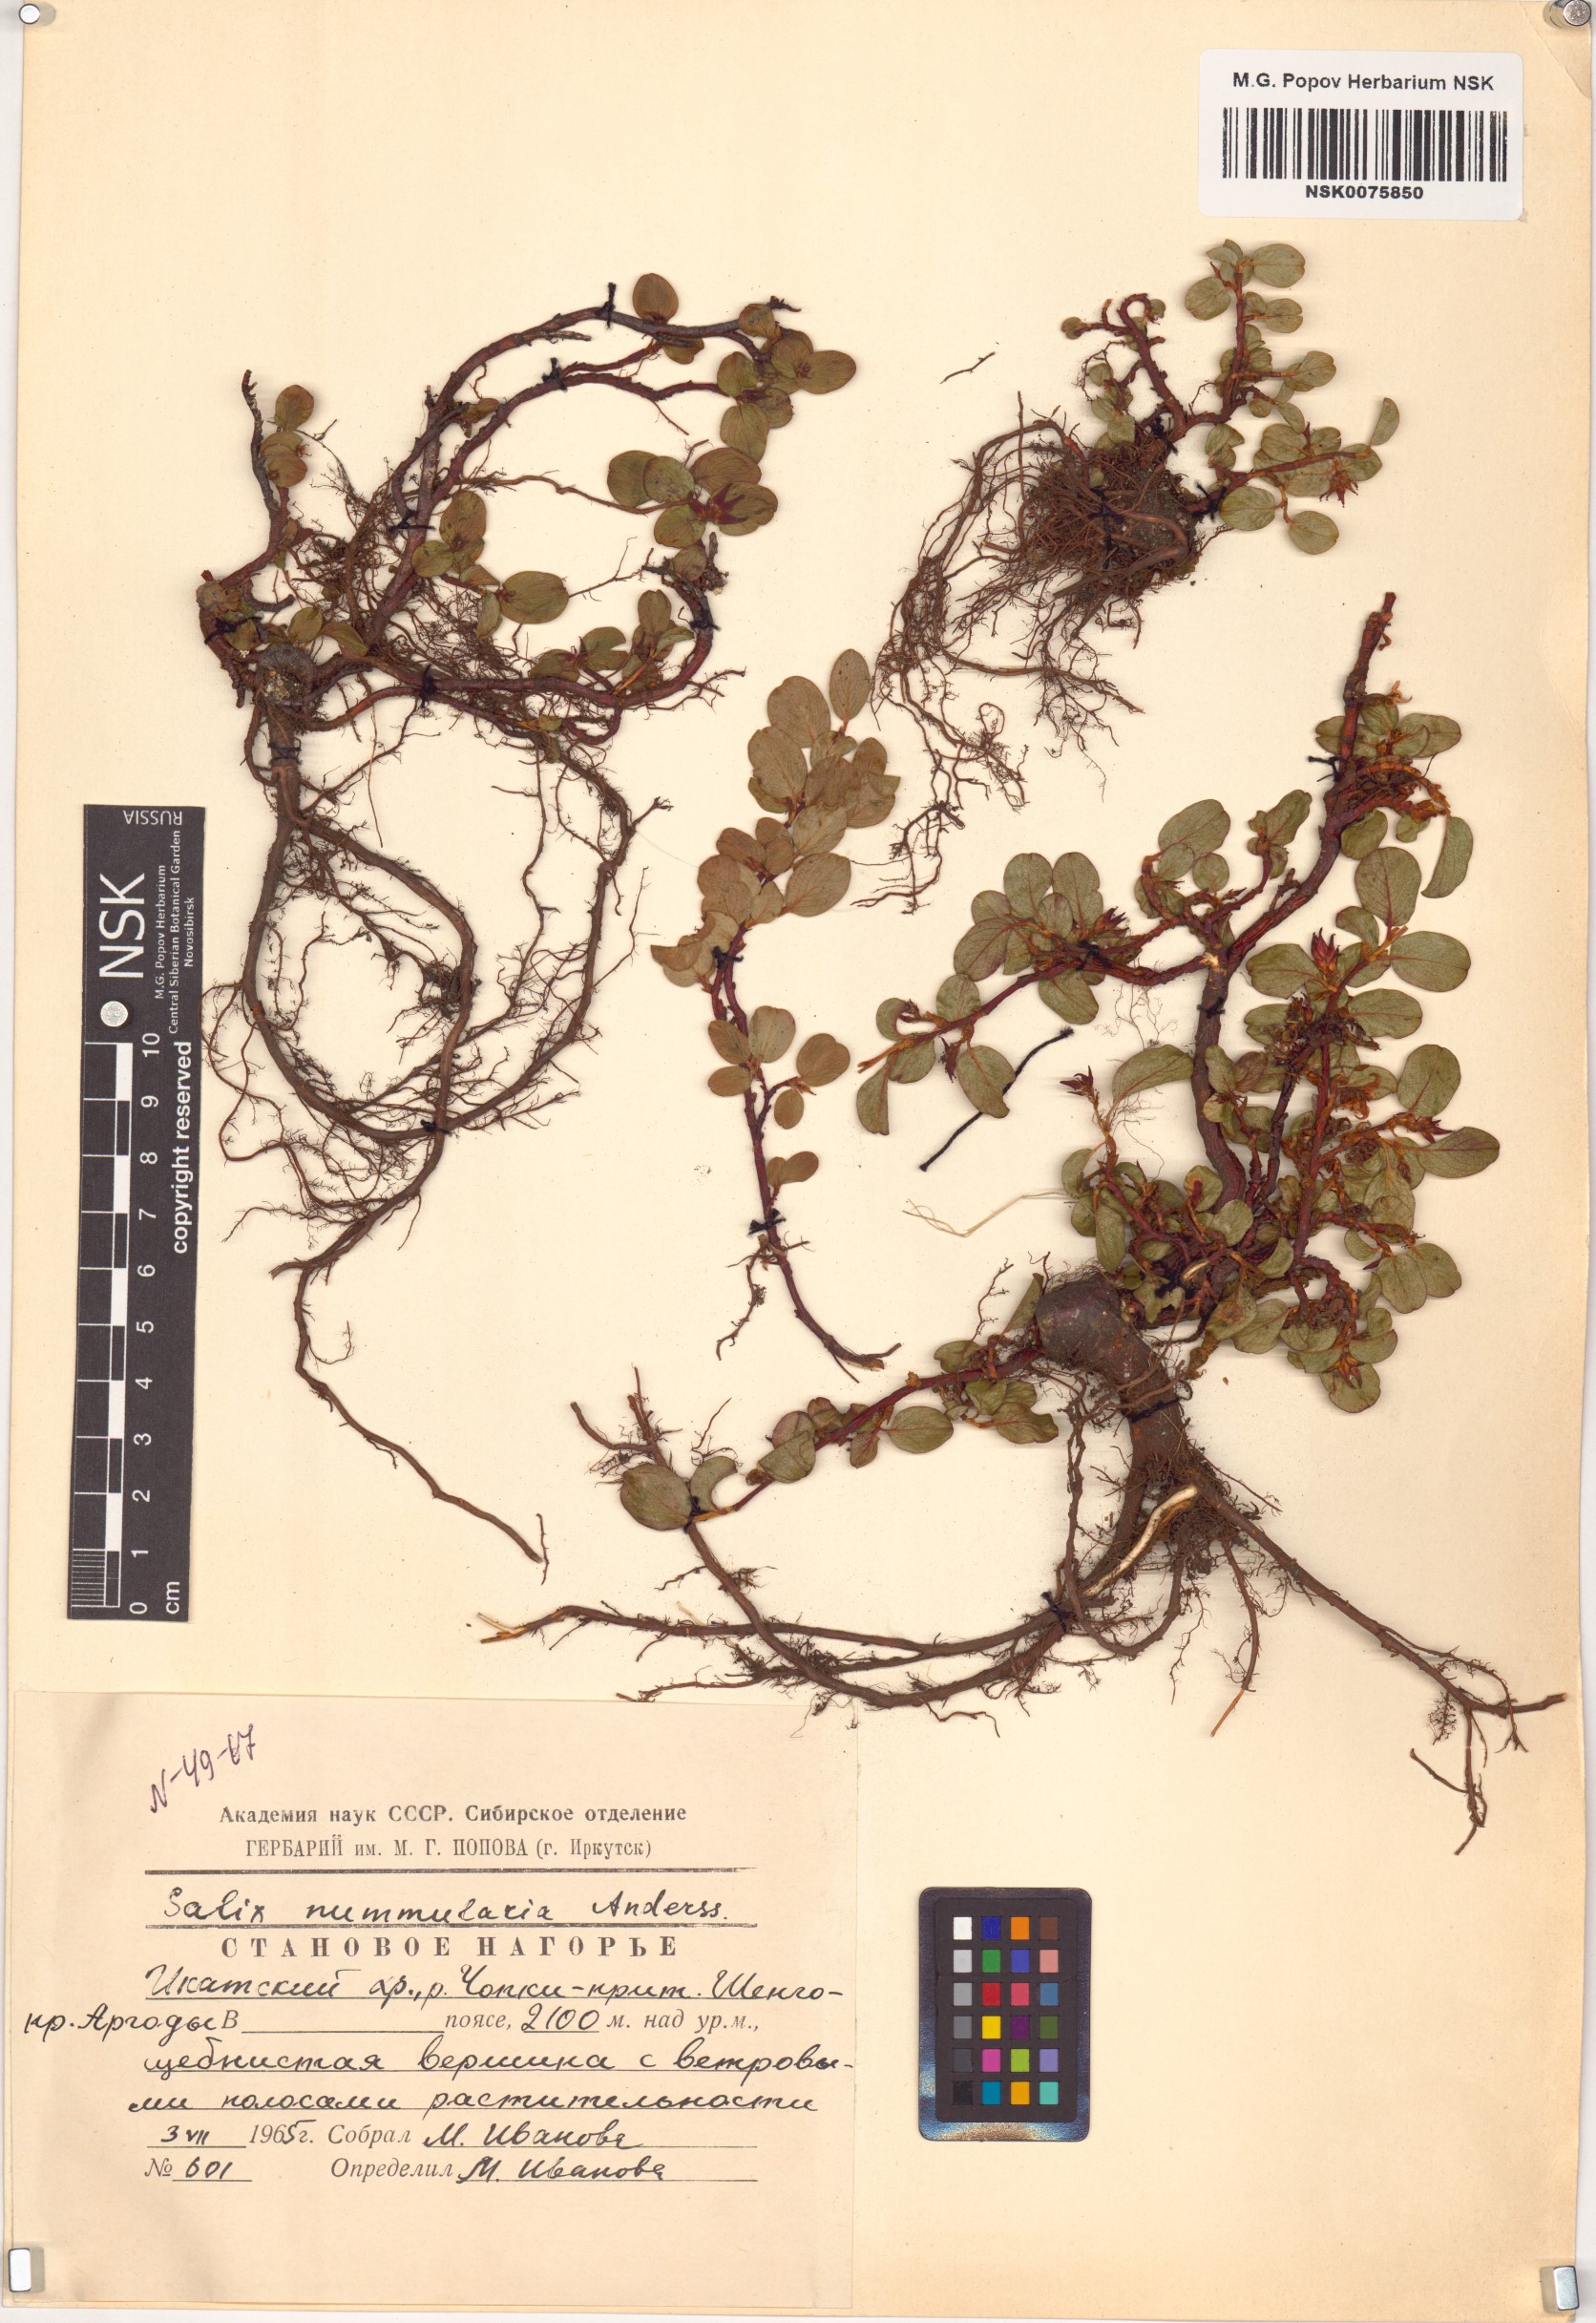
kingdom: Plantae
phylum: Tracheophyta
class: Magnoliopsida
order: Malpighiales
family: Salicaceae
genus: Salix
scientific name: Salix nummularia
